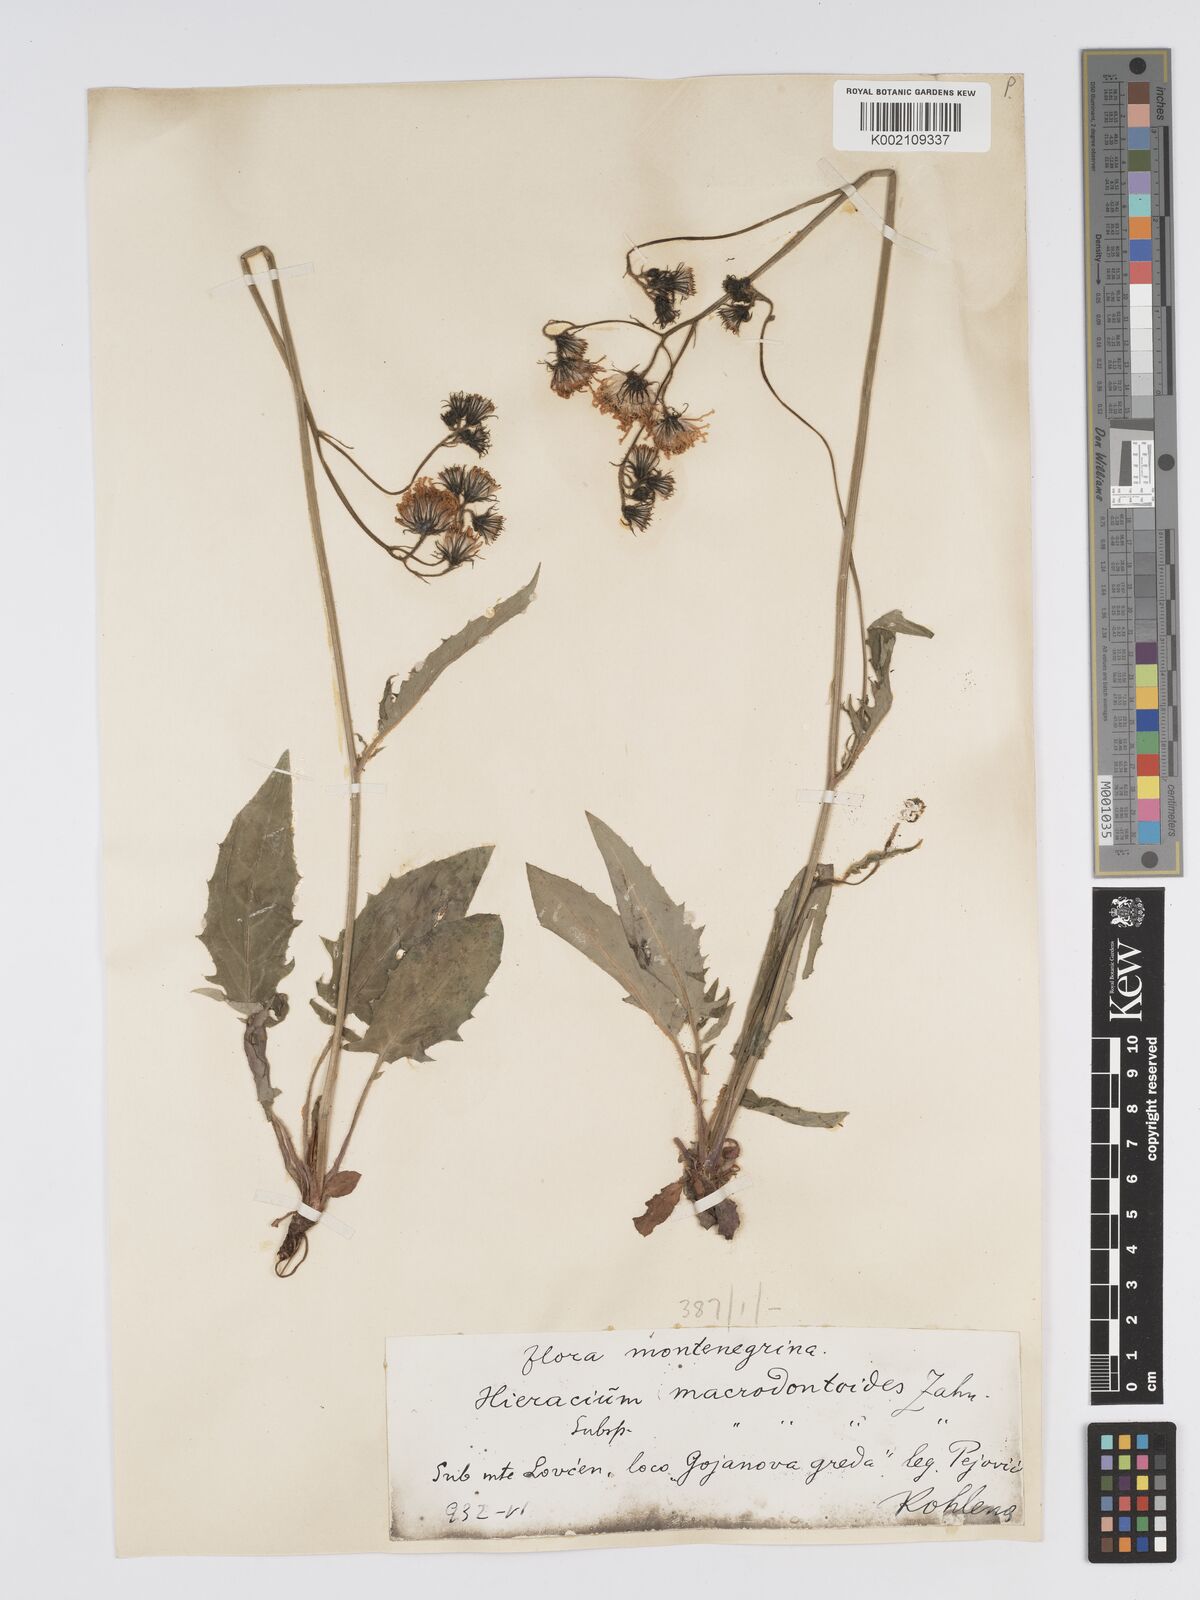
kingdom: Plantae
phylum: Tracheophyta
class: Magnoliopsida
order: Asterales
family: Asteraceae
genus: Hieracium
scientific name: Hieracium macrodontoides
